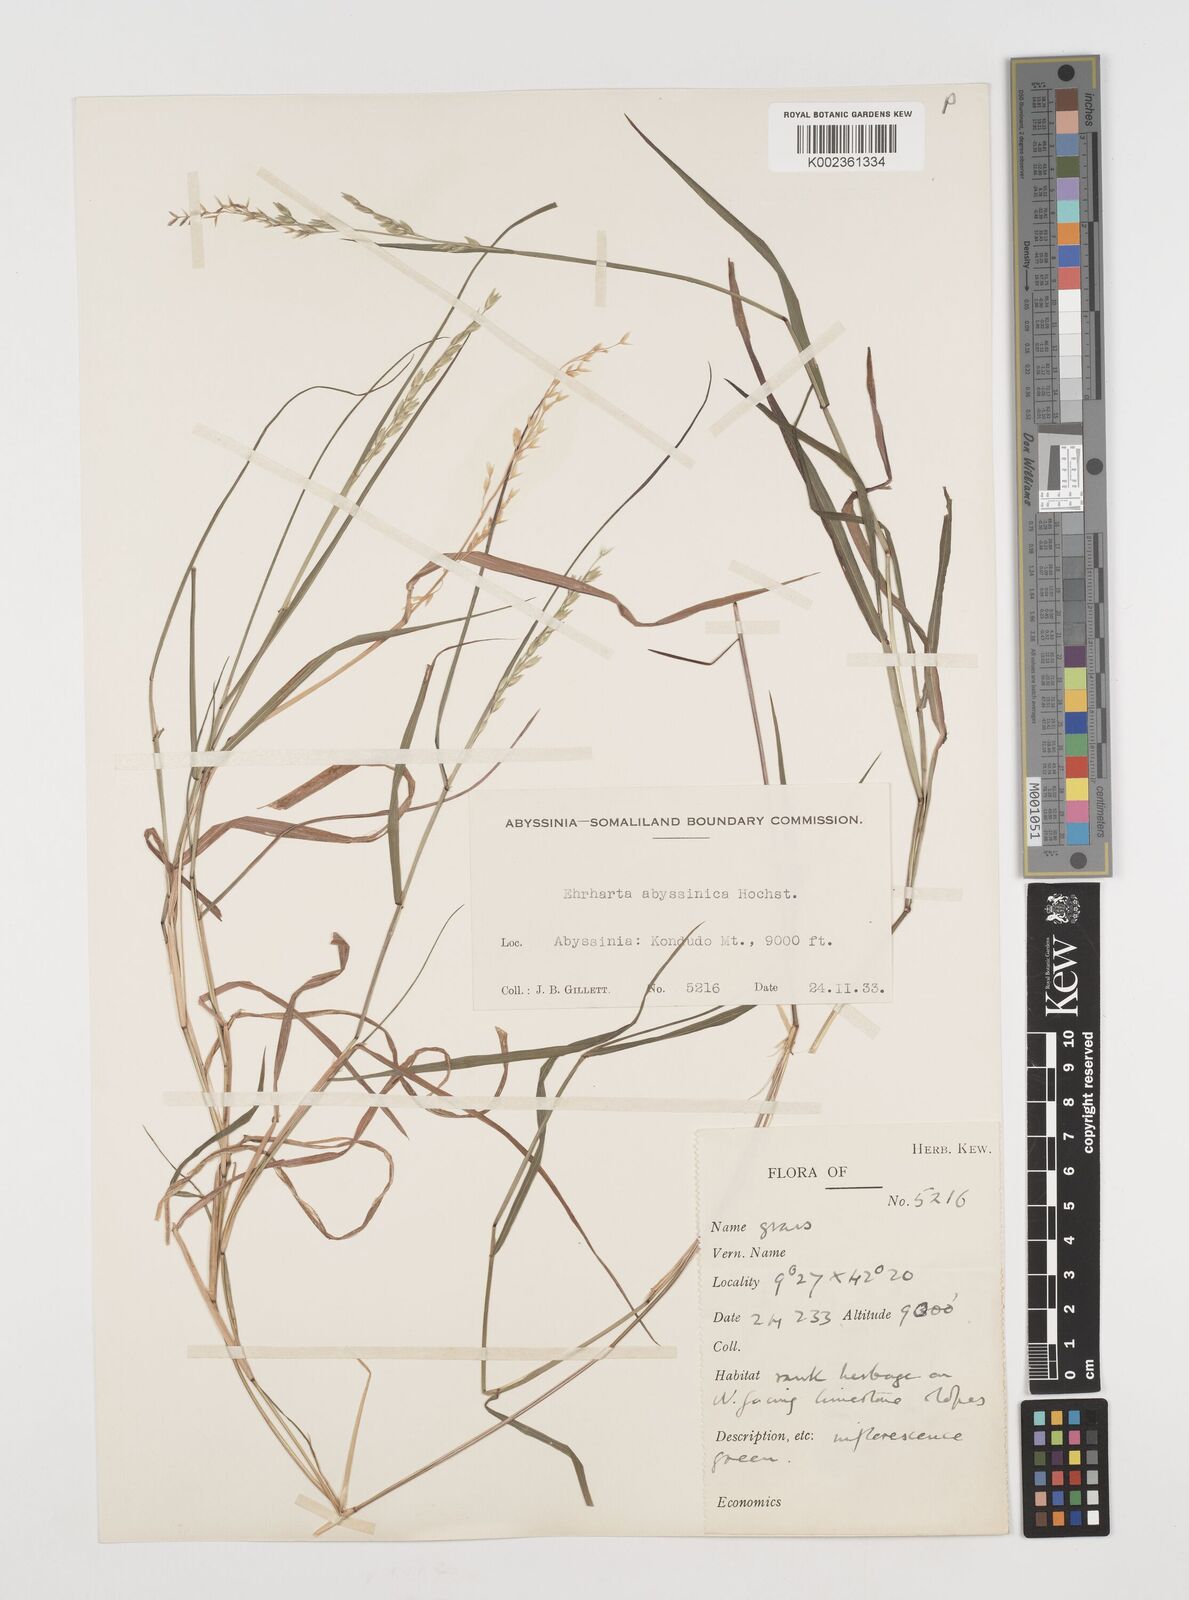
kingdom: Plantae
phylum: Tracheophyta
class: Liliopsida
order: Poales
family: Poaceae
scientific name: Poaceae
